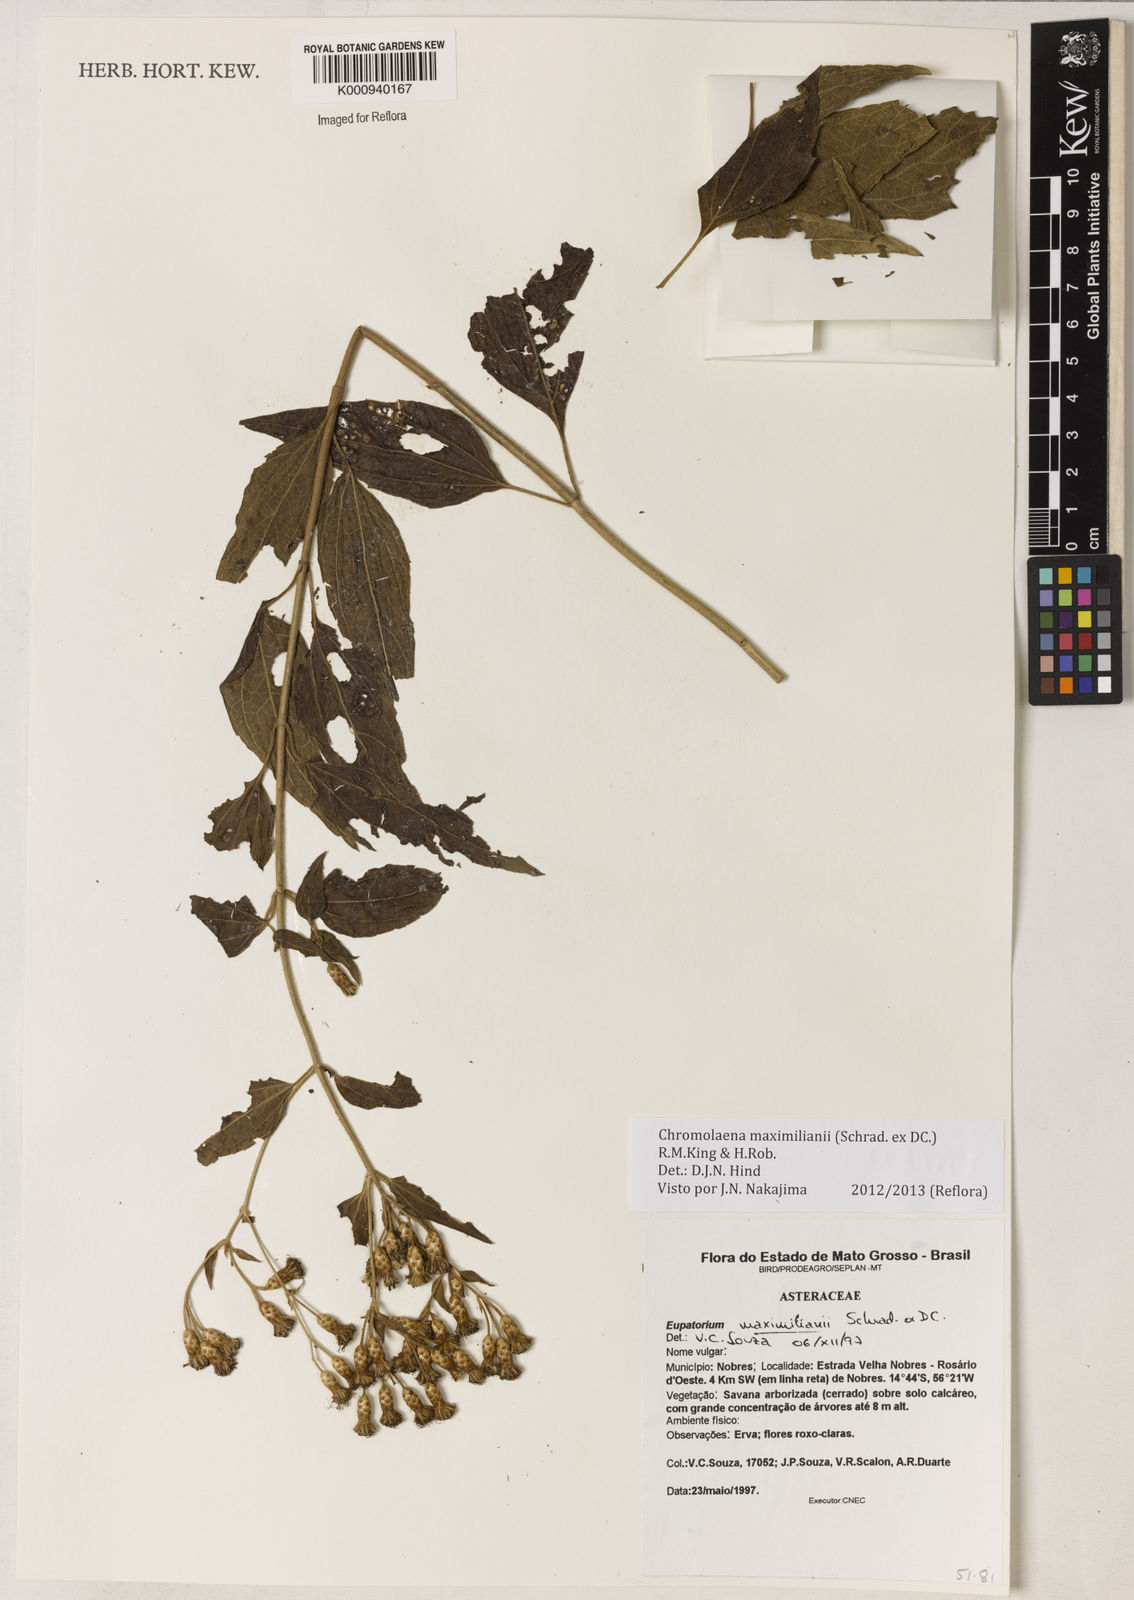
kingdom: Plantae
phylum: Tracheophyta
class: Magnoliopsida
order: Asterales
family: Asteraceae
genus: Chromolaena
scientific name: Chromolaena maximiliani
